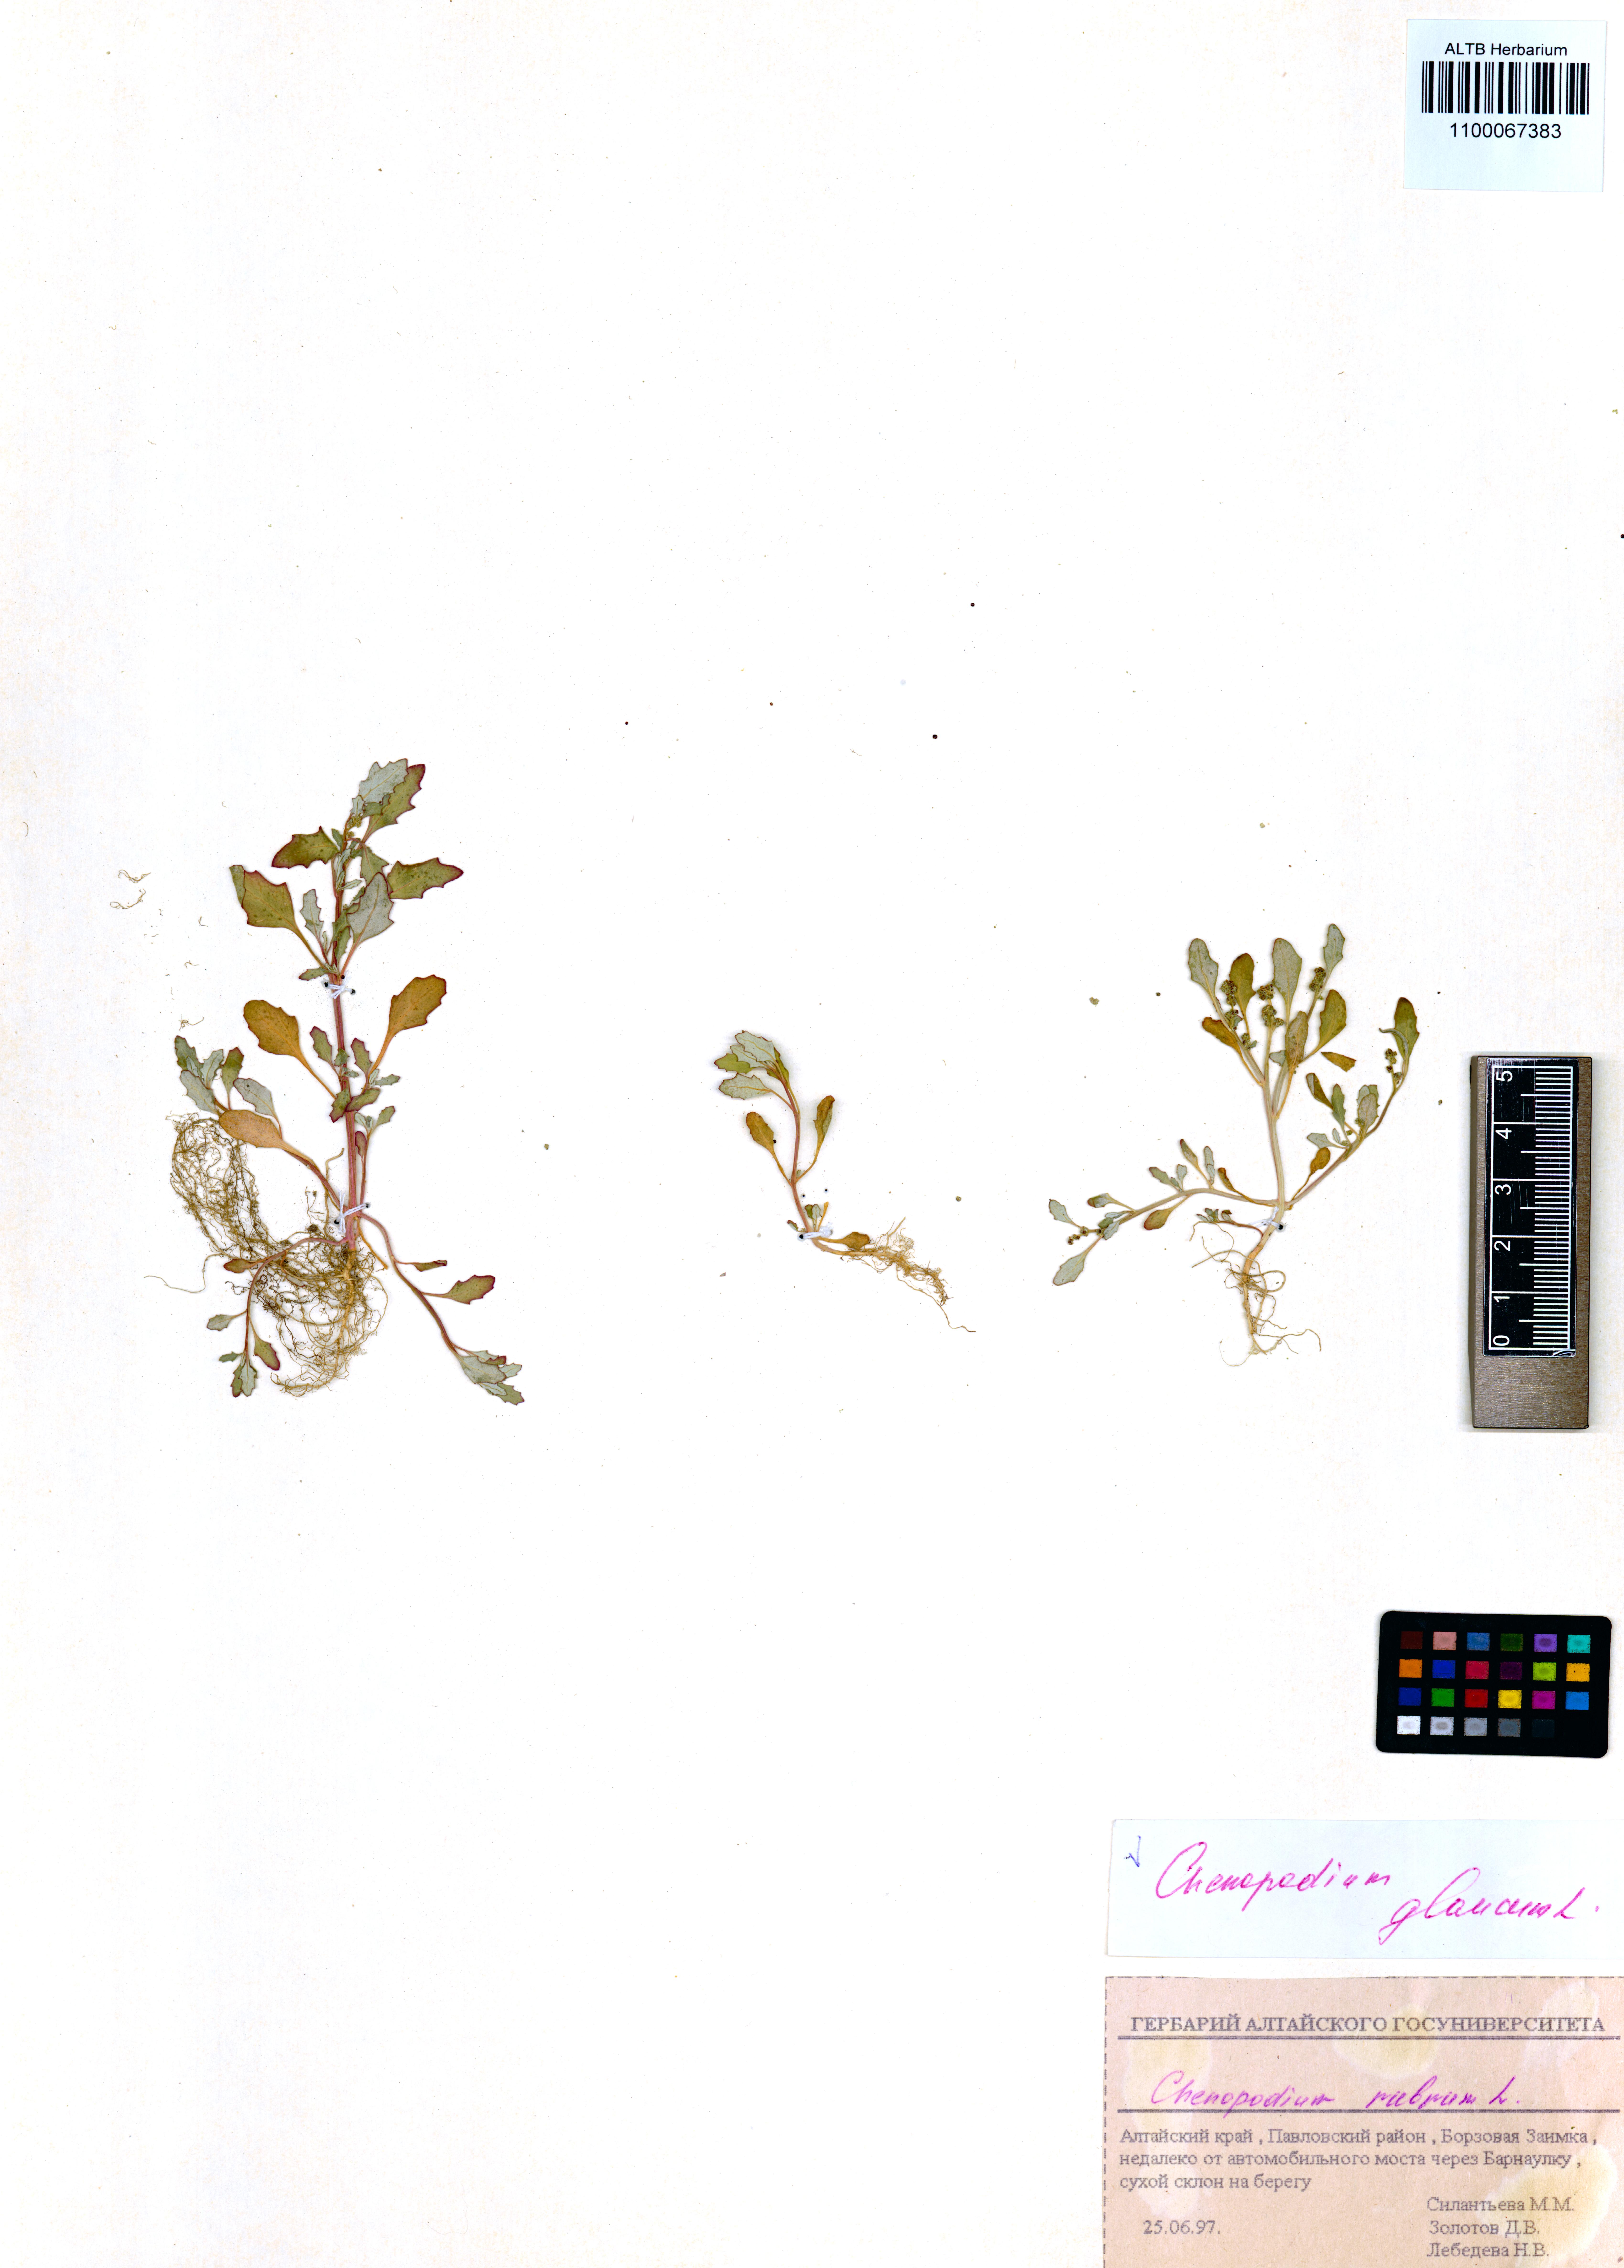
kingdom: Plantae
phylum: Tracheophyta
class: Magnoliopsida
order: Caryophyllales
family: Amaranthaceae
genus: Oxybasis
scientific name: Oxybasis glauca
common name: Glaucous goosefoot
